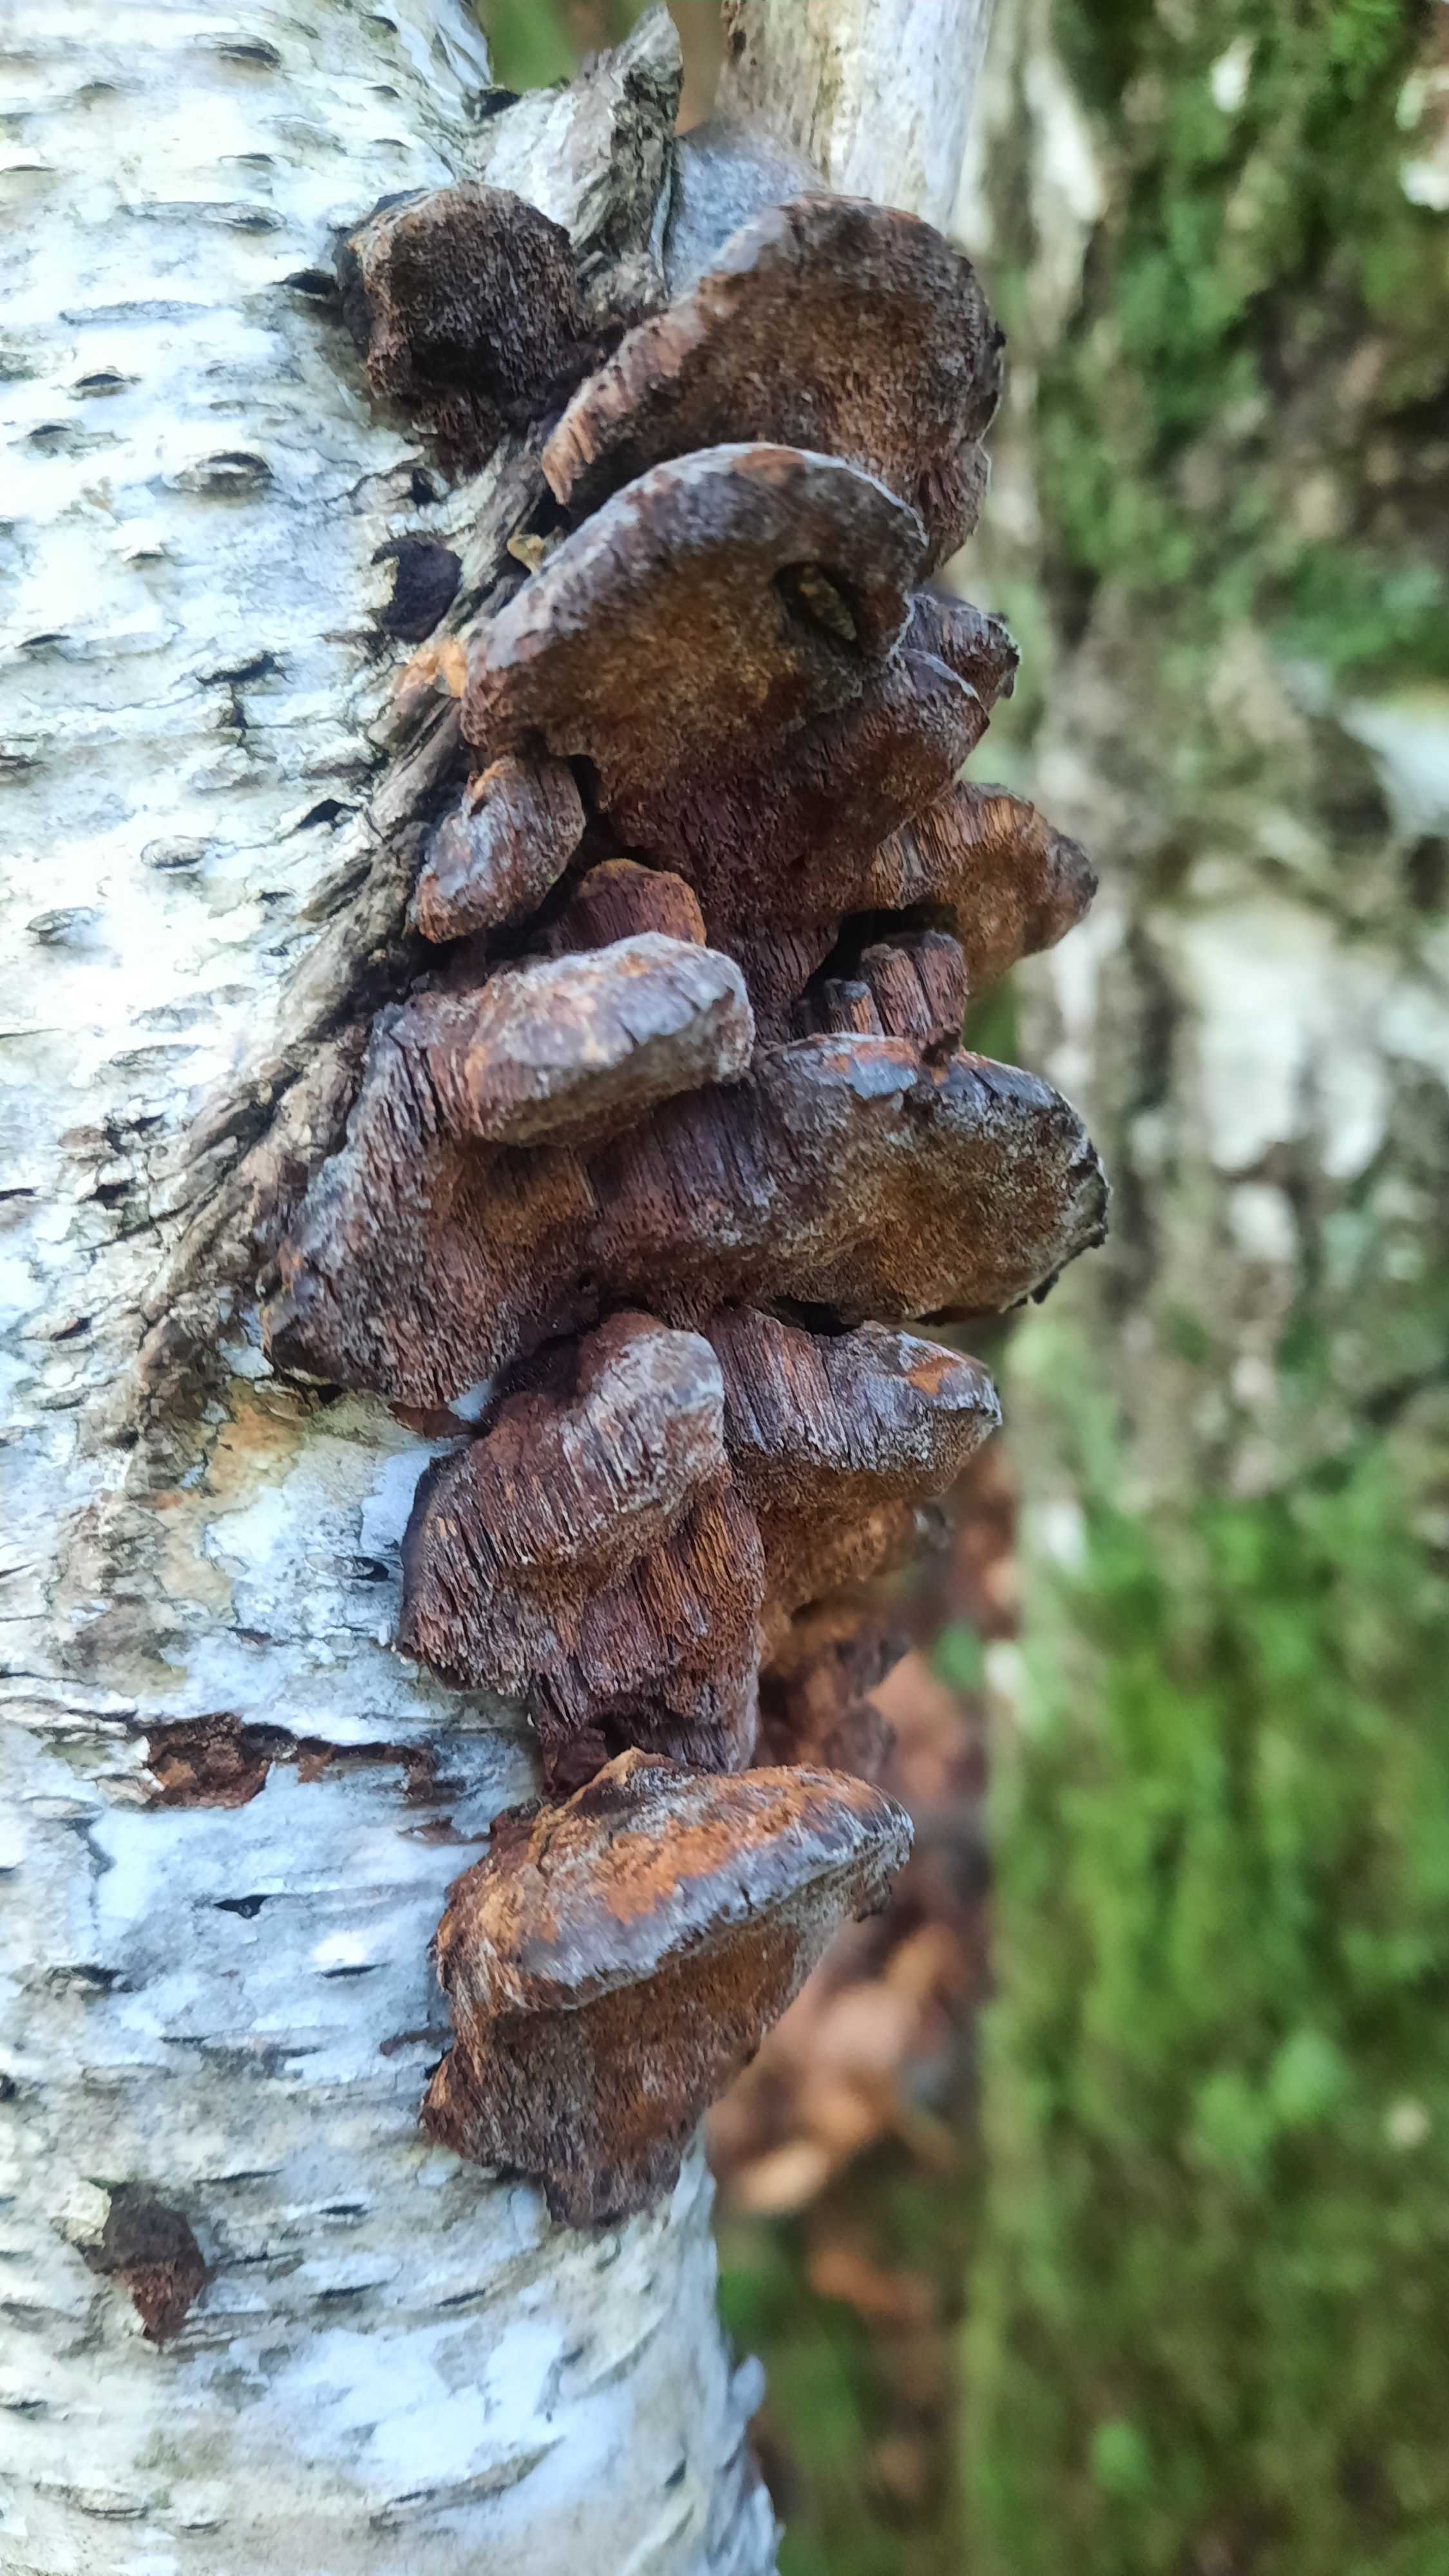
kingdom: Fungi
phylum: Basidiomycota
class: Agaricomycetes
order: Hymenochaetales
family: Hymenochaetaceae
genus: Xanthoporia
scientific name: Xanthoporia radiata
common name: elle-spejlporesvamp
